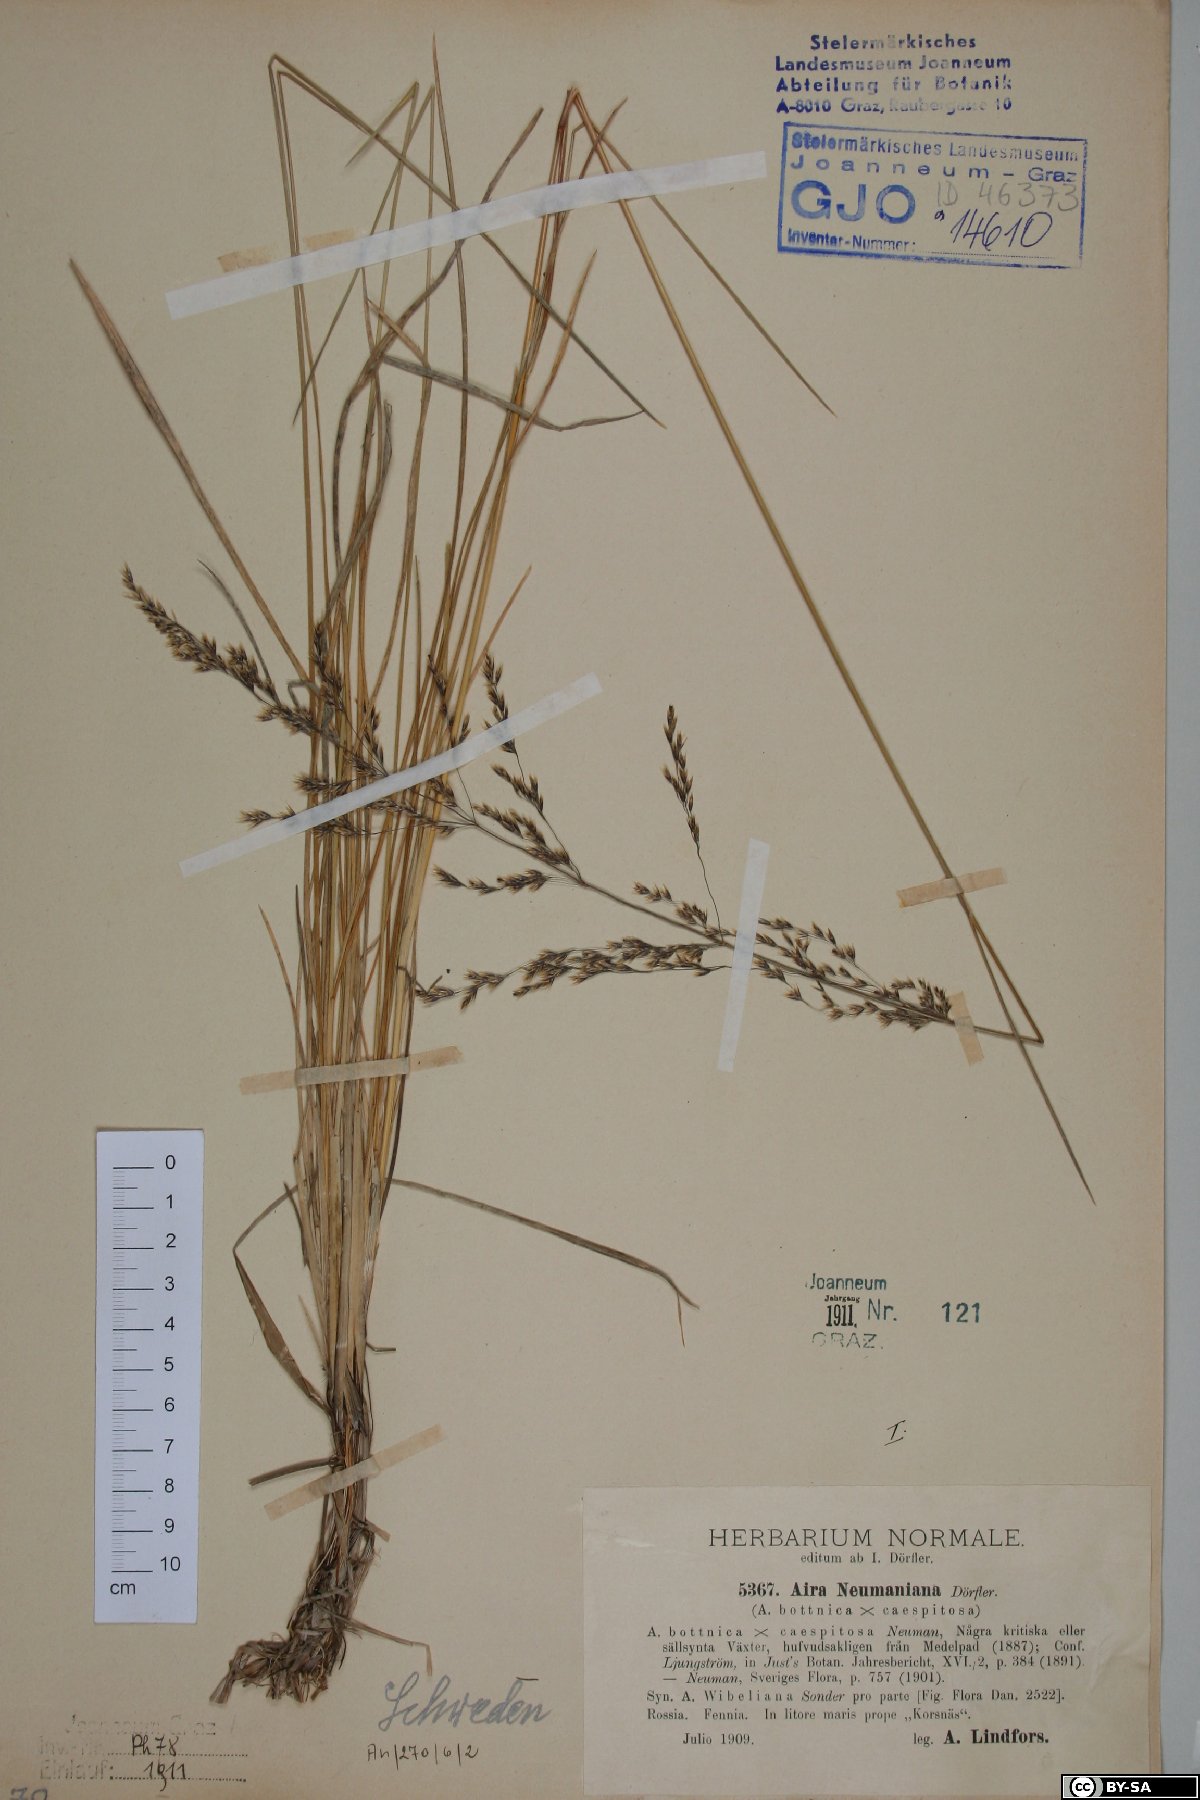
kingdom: Plantae
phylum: Tracheophyta
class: Liliopsida
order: Poales
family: Poaceae
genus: Deschampsia
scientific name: Deschampsia cespitosa
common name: Tufted hair-grass
